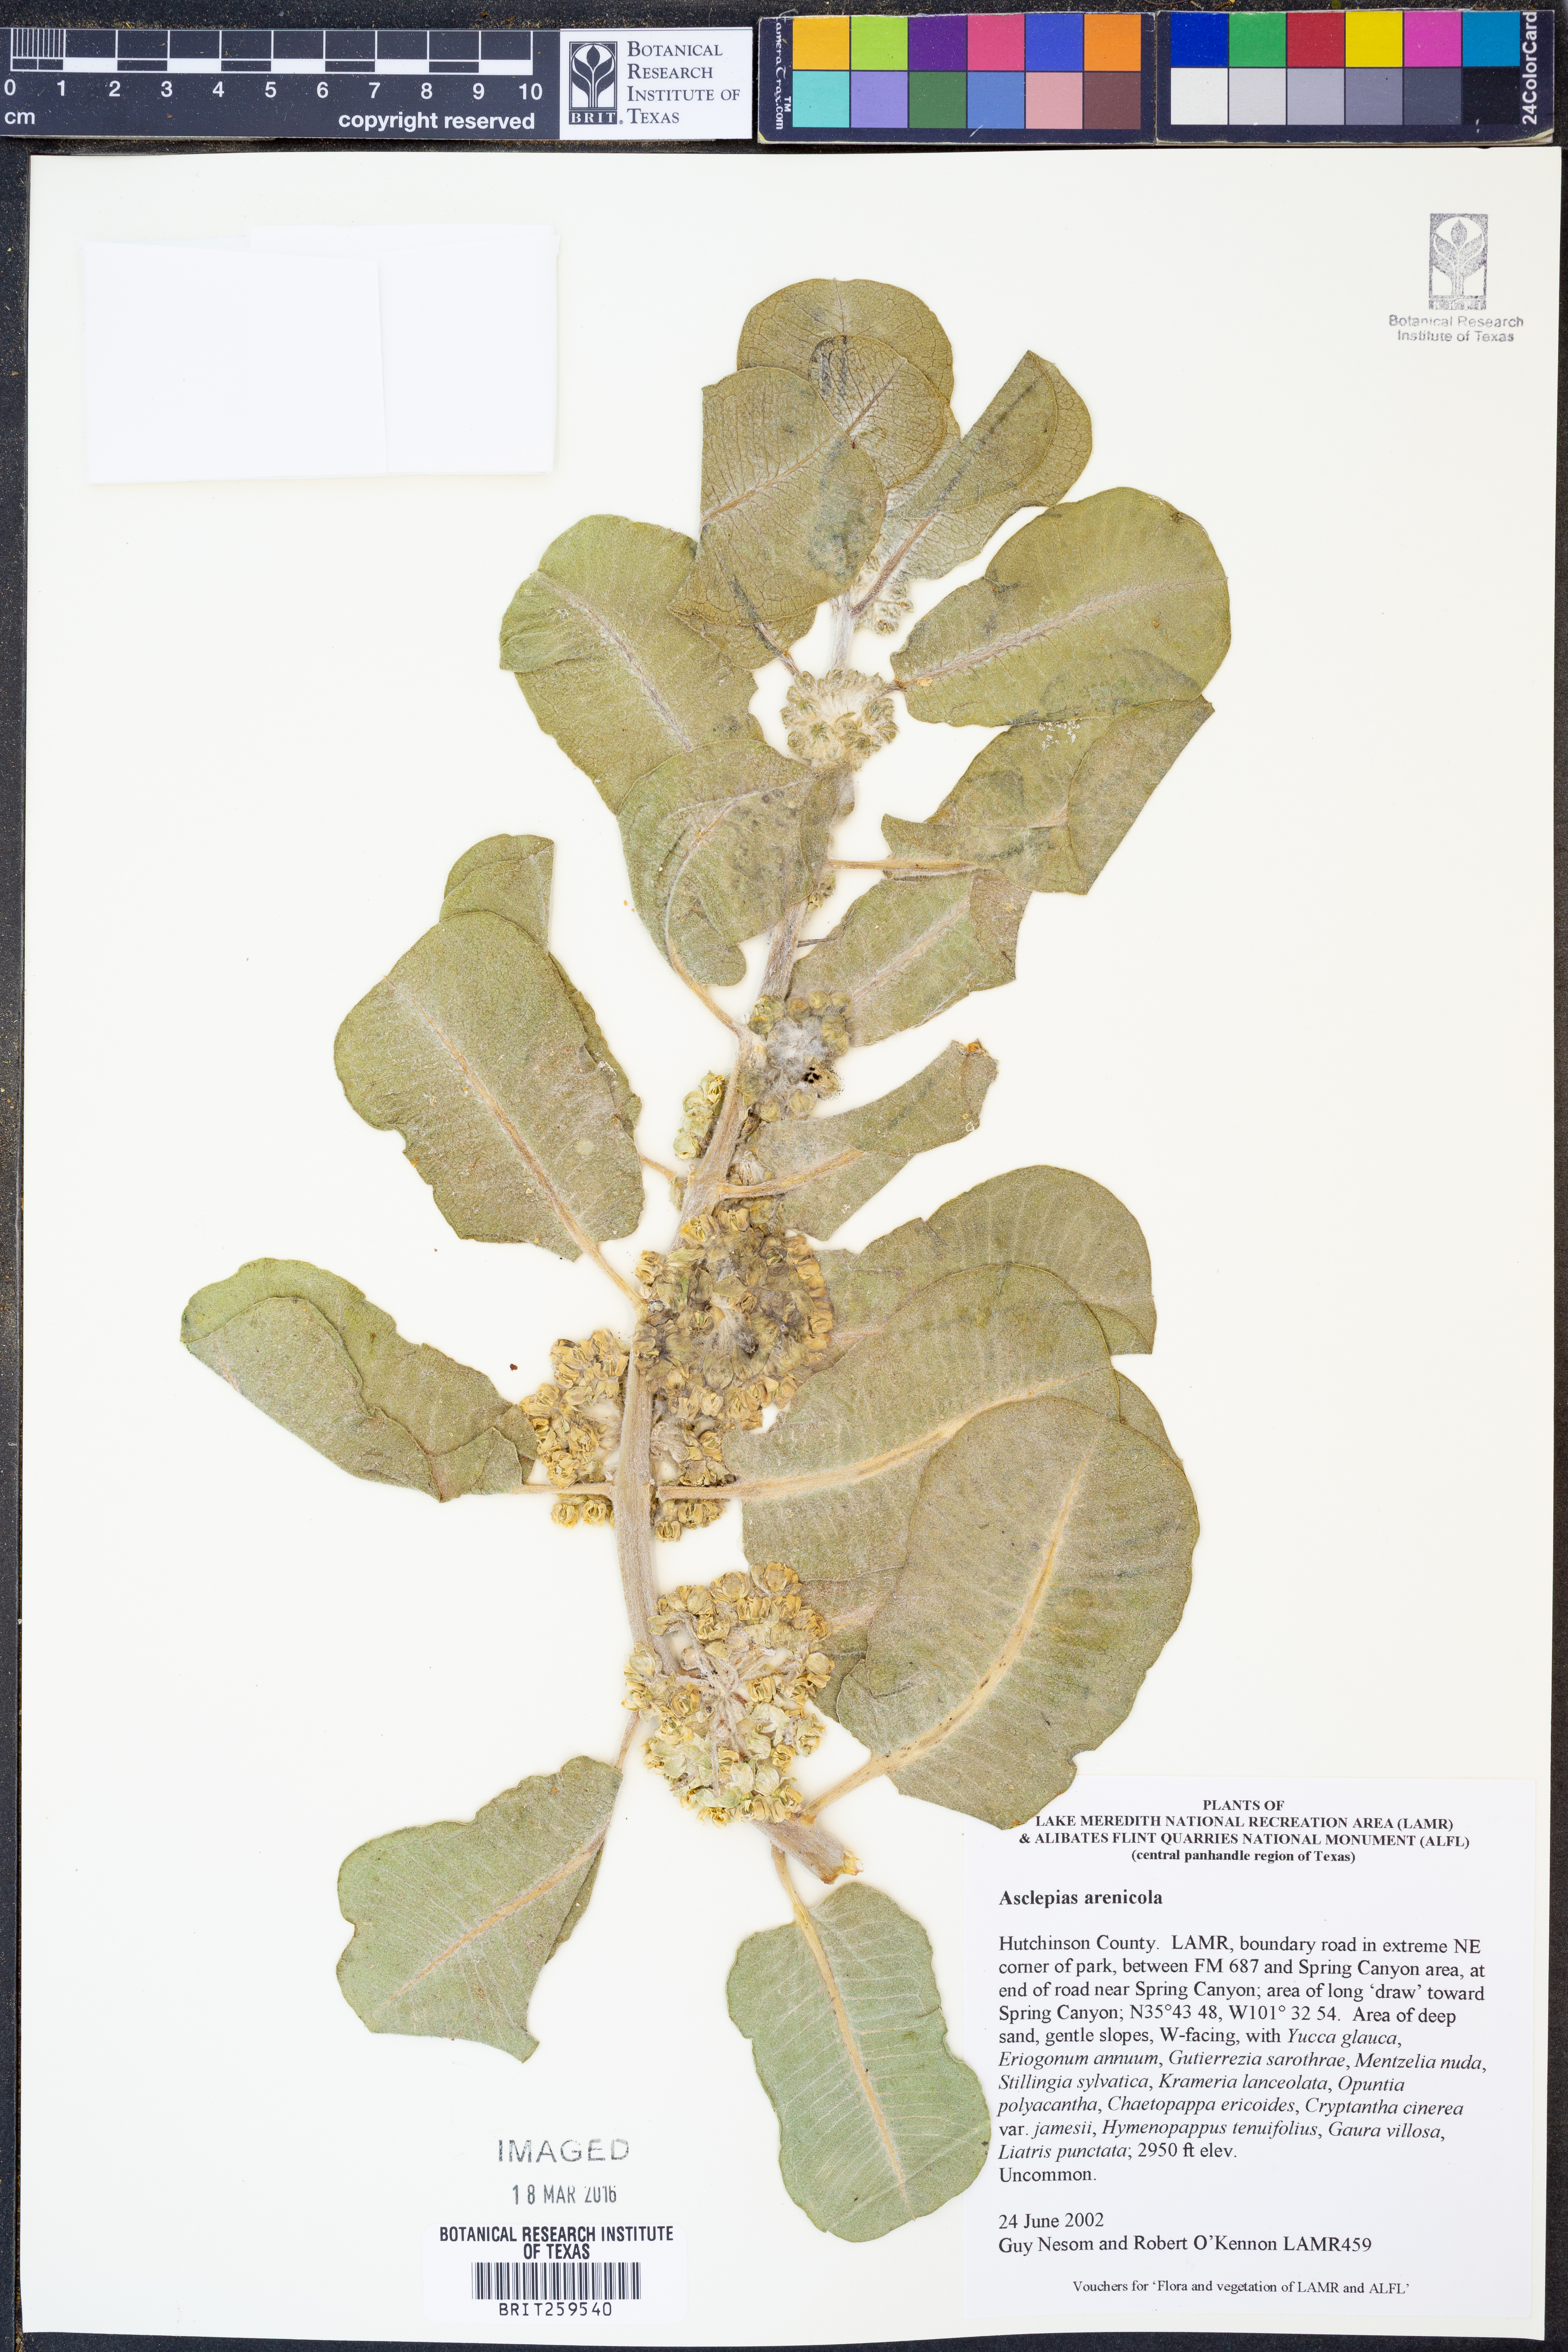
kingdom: Plantae
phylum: Tracheophyta
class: Magnoliopsida
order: Gentianales
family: Apocynaceae
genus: Asclepias
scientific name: Asclepias arenaria
